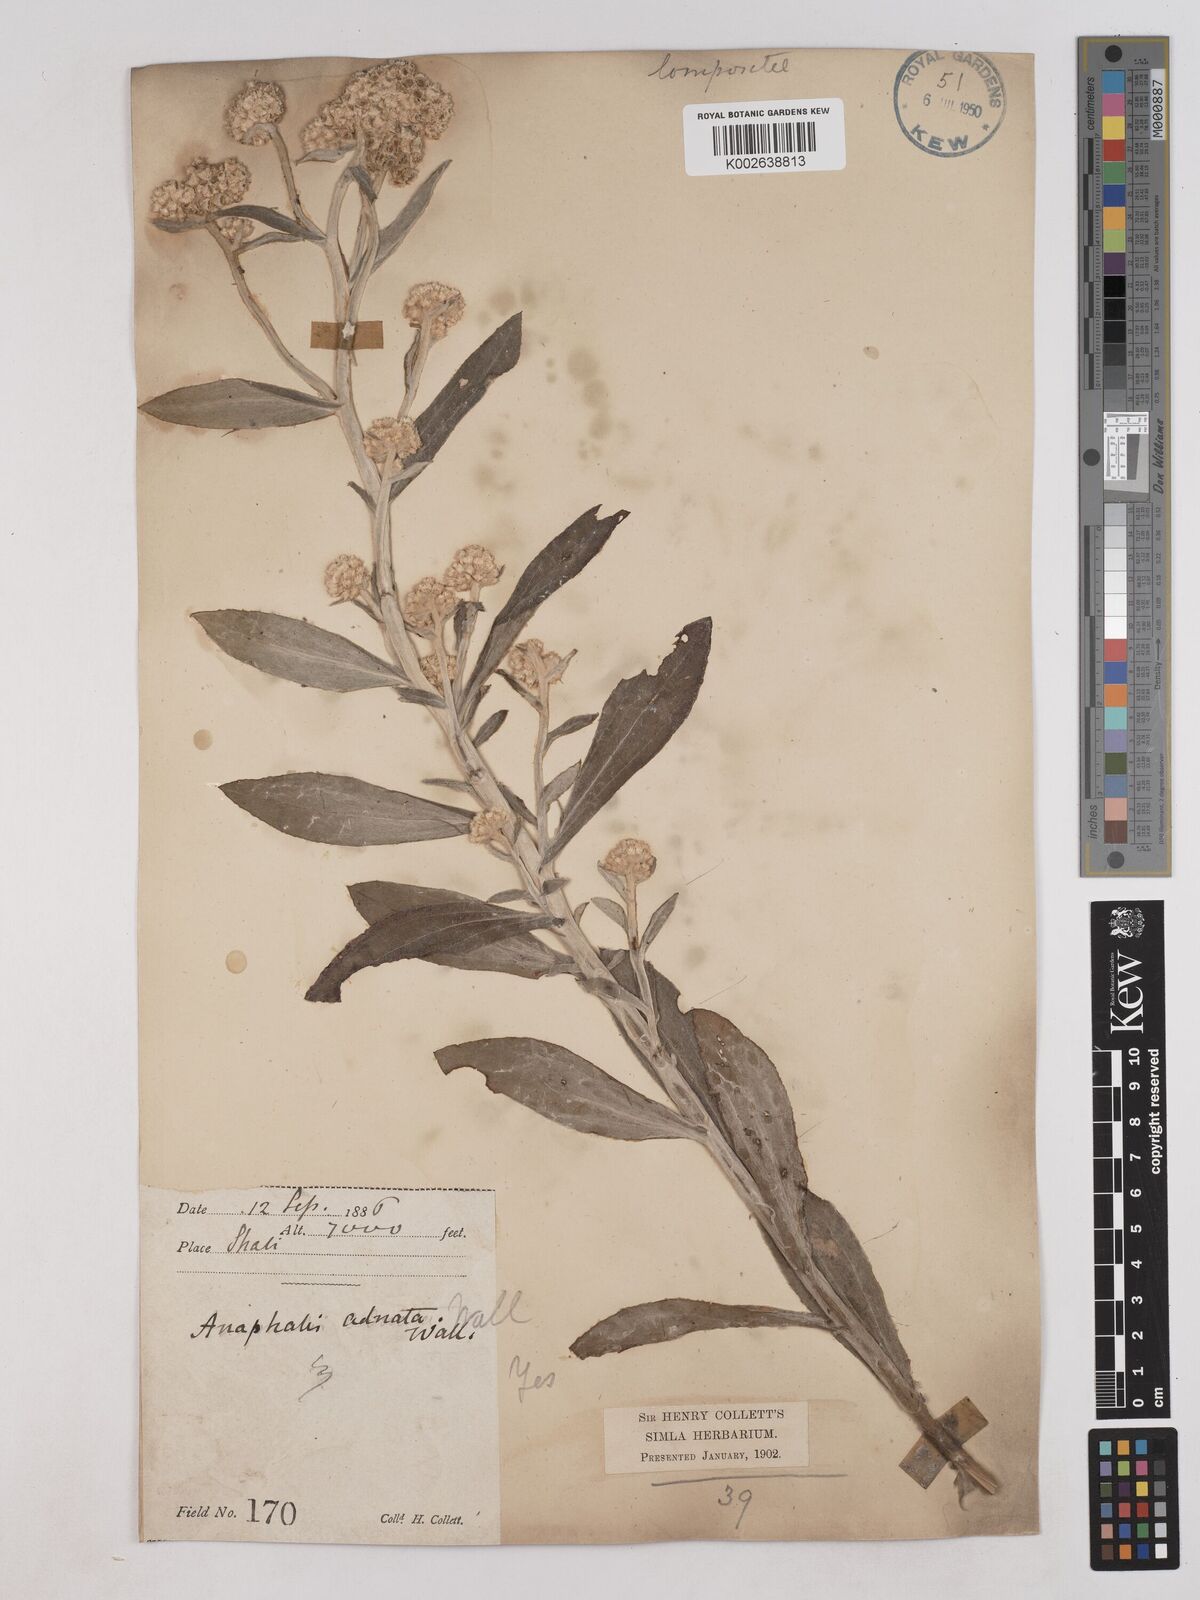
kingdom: Plantae
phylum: Tracheophyta
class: Magnoliopsida
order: Asterales
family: Asteraceae
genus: Pseudognaphalium
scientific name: Pseudognaphalium adnatum
